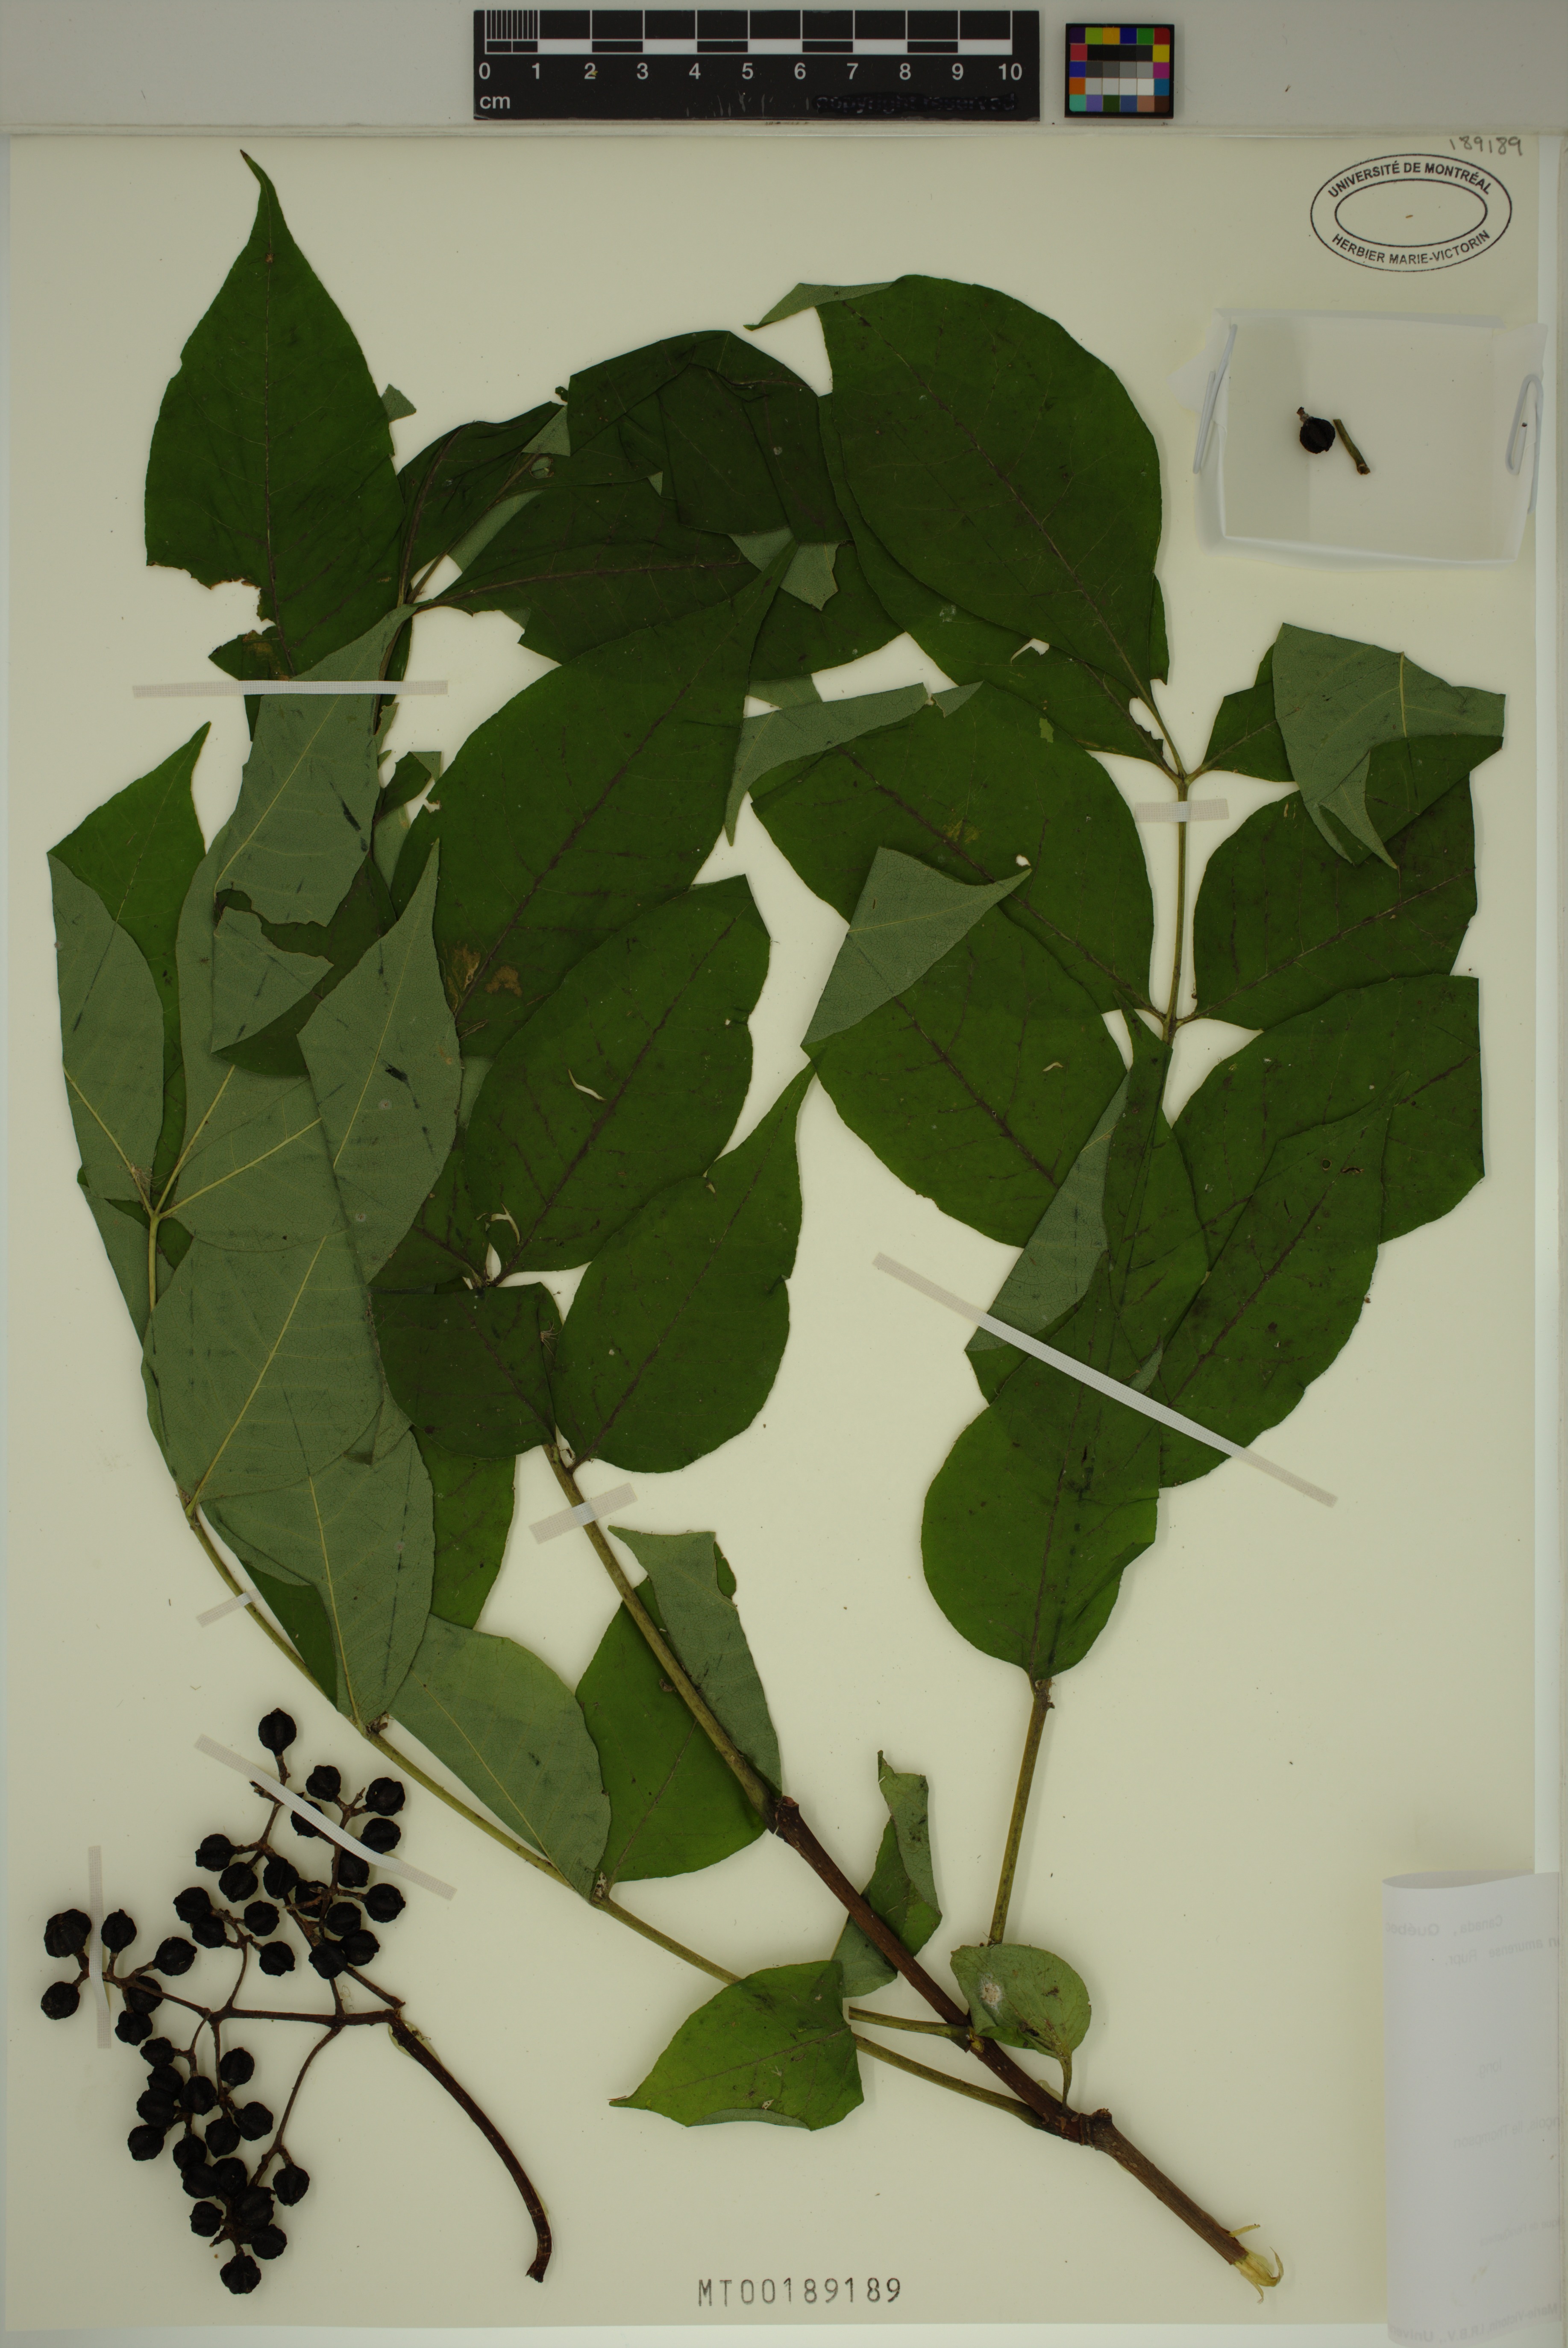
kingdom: Plantae
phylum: Tracheophyta
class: Magnoliopsida
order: Sapindales
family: Rutaceae
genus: Phellodendron
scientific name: Phellodendron amurense
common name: Amur corktree
